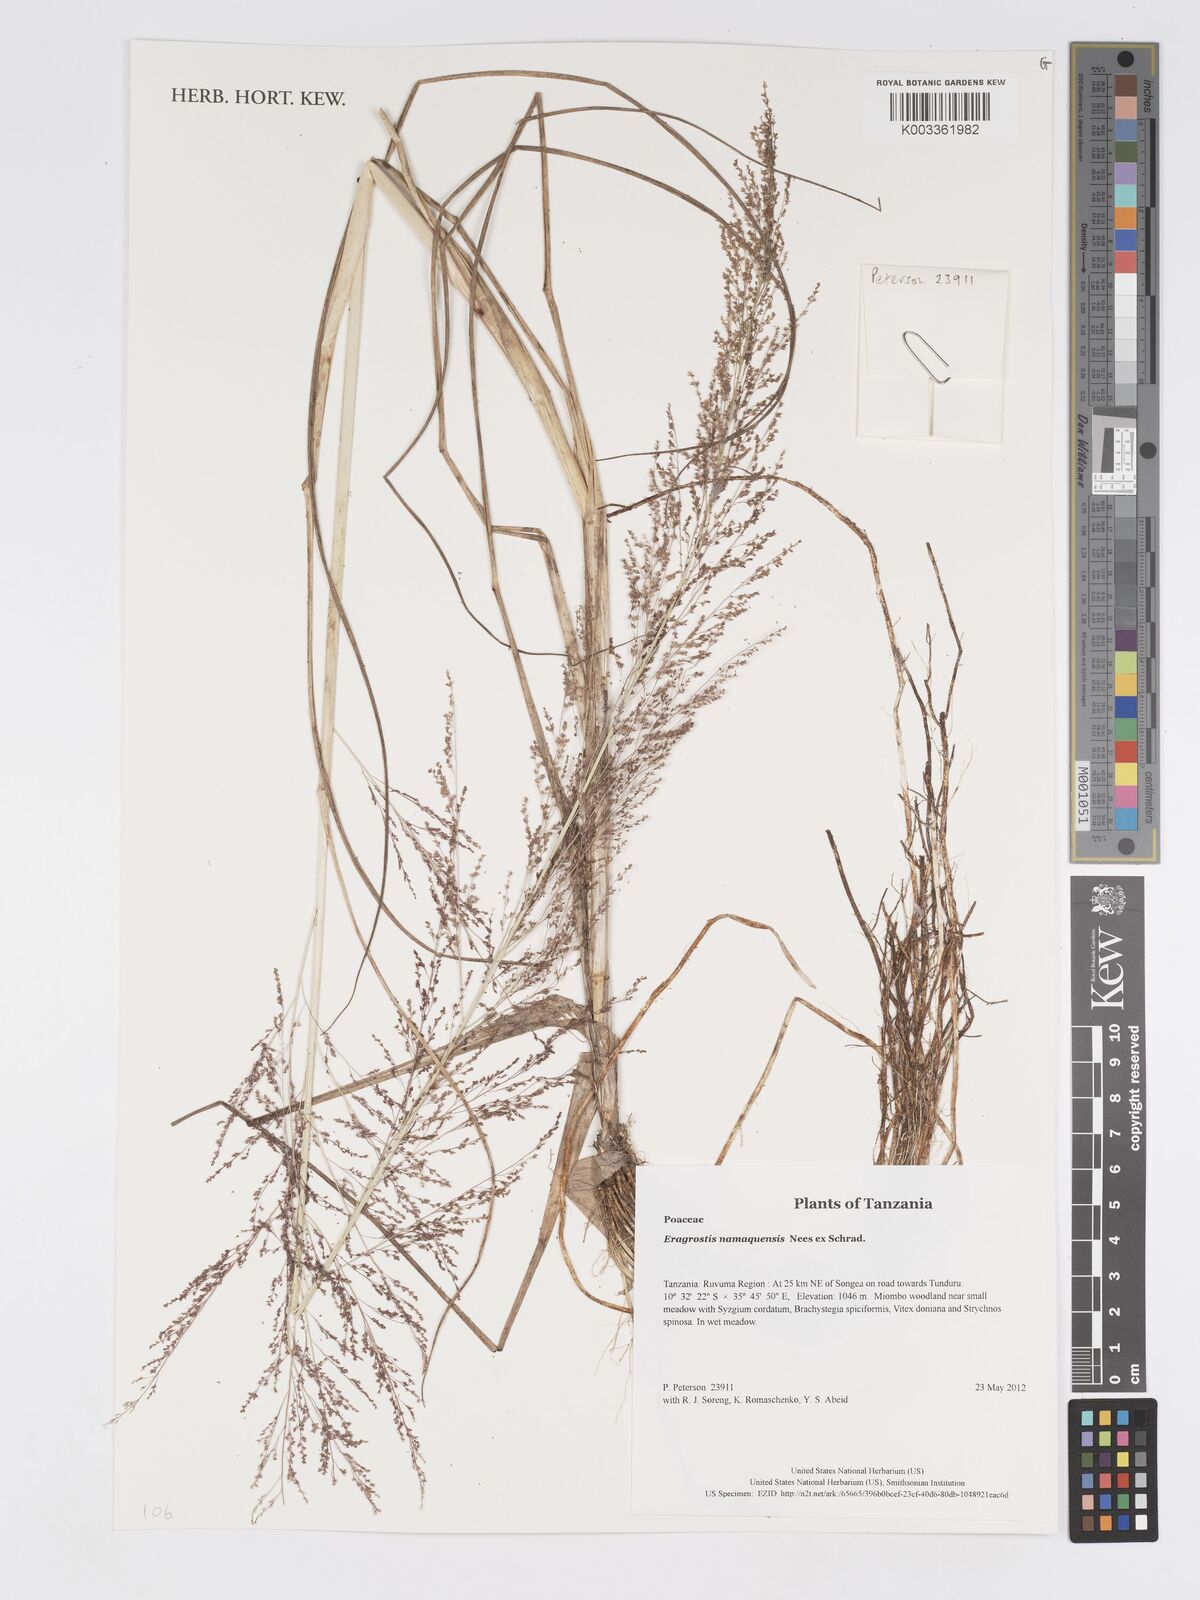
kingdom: Plantae
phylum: Tracheophyta
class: Liliopsida
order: Poales
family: Poaceae
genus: Eragrostis
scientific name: Eragrostis japonica
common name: Pond lovegrass
